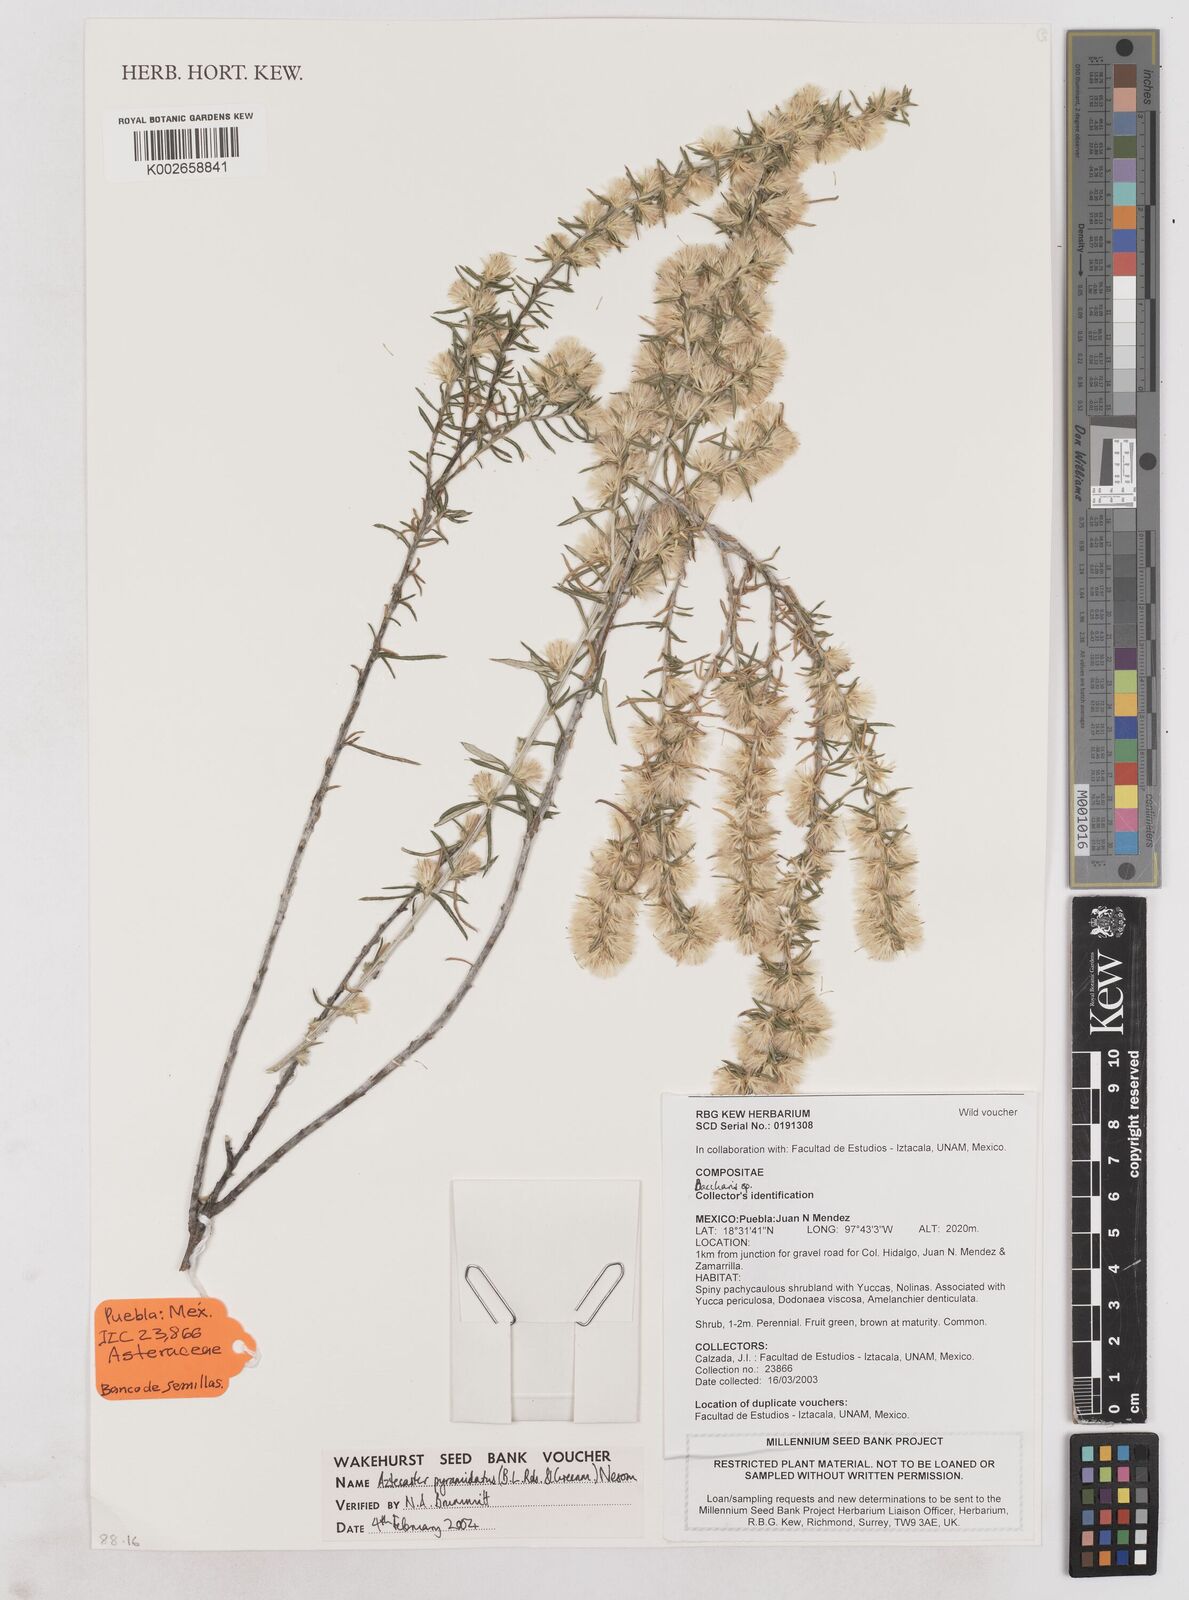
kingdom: Plantae
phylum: Tracheophyta
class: Magnoliopsida
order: Asterales
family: Asteraceae
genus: Aztecaster
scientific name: Aztecaster pyramidatus
